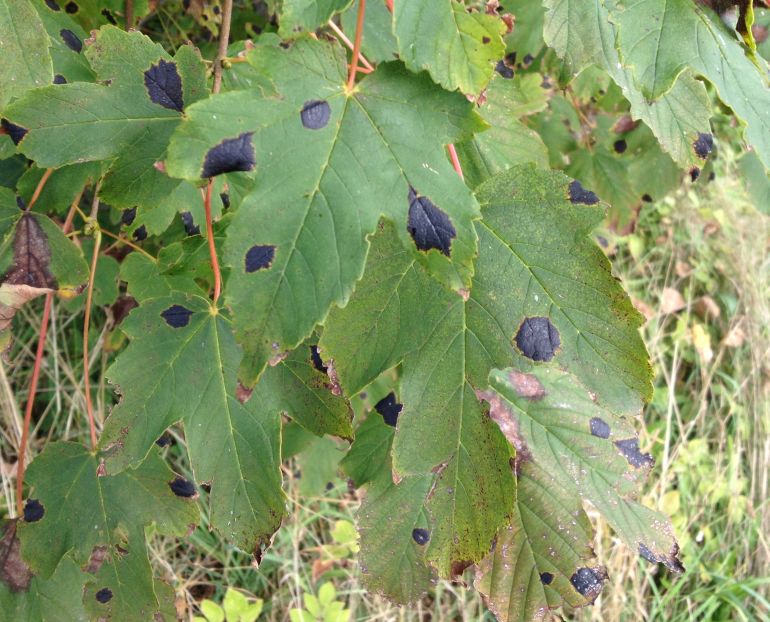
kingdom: Fungi
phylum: Ascomycota
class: Leotiomycetes
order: Rhytismatales
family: Rhytismataceae
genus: Rhytisma
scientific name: Rhytisma acerinum
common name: ahorn-rynkeplet
